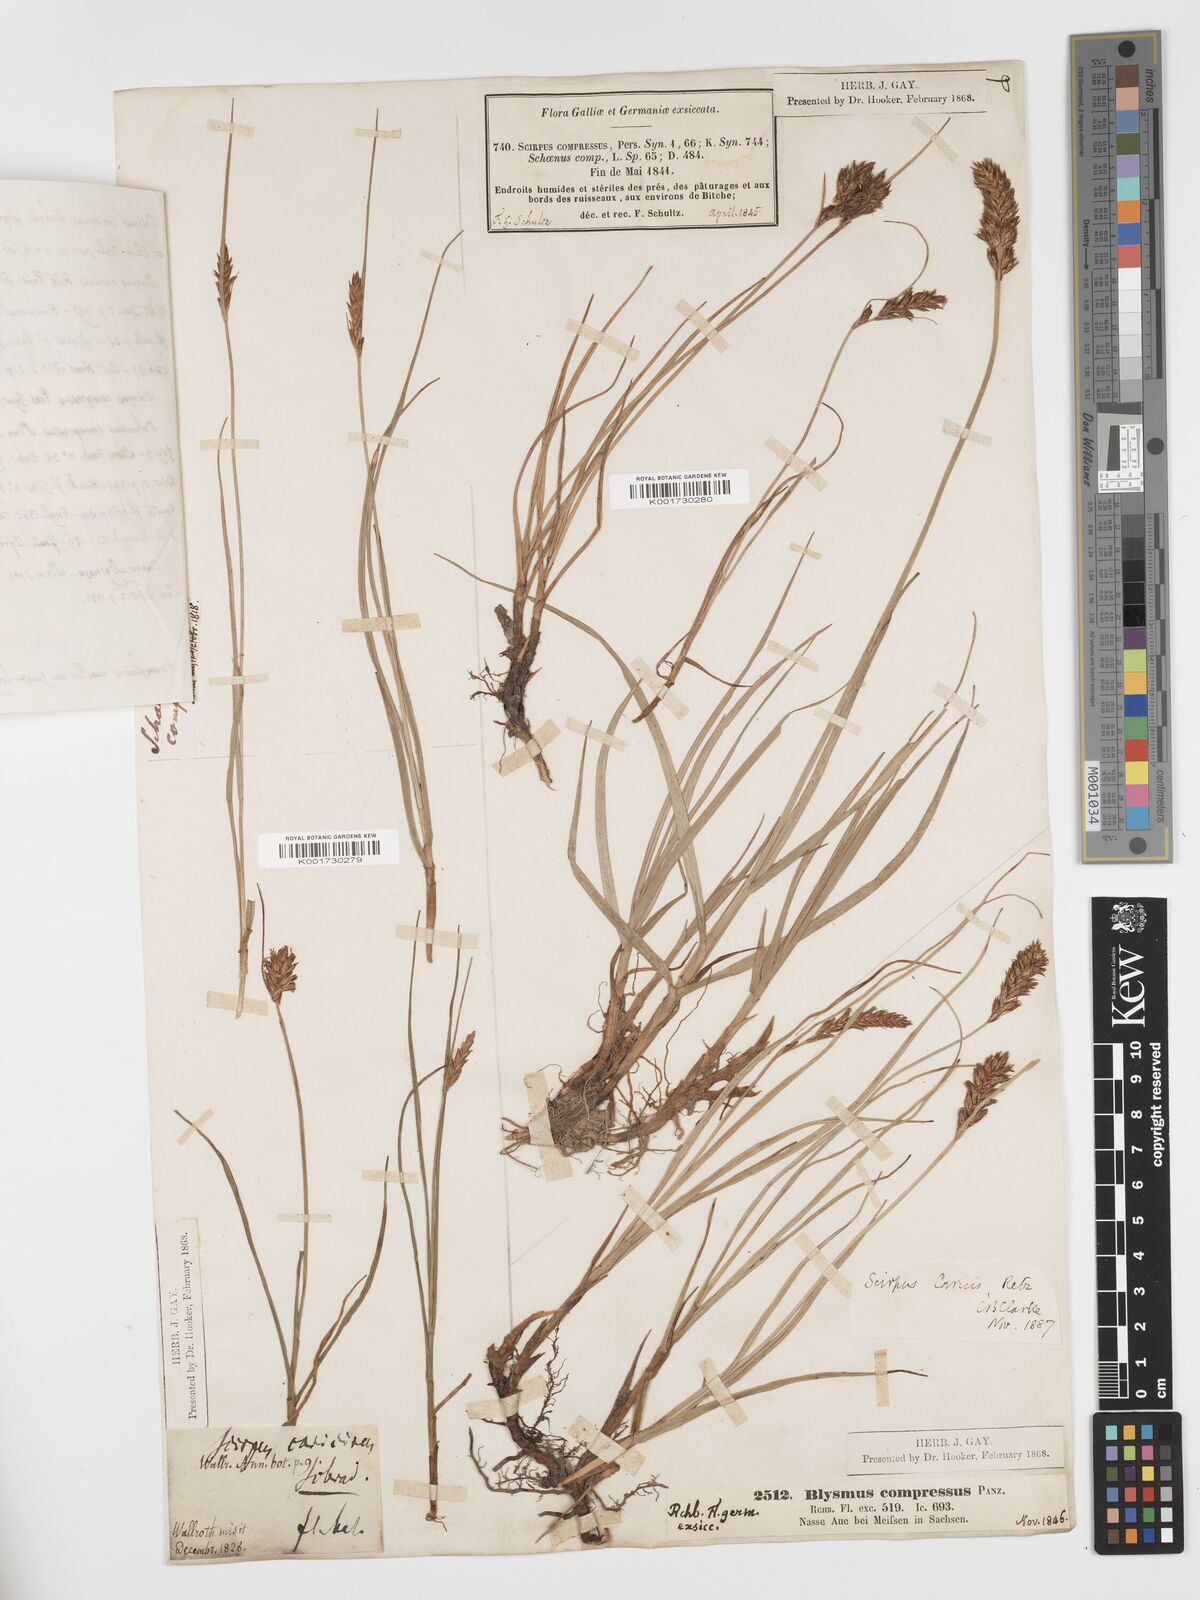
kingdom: Plantae
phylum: Tracheophyta
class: Liliopsida
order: Poales
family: Cyperaceae
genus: Blysmus
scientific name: Blysmus compressus
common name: Flat-sedge
